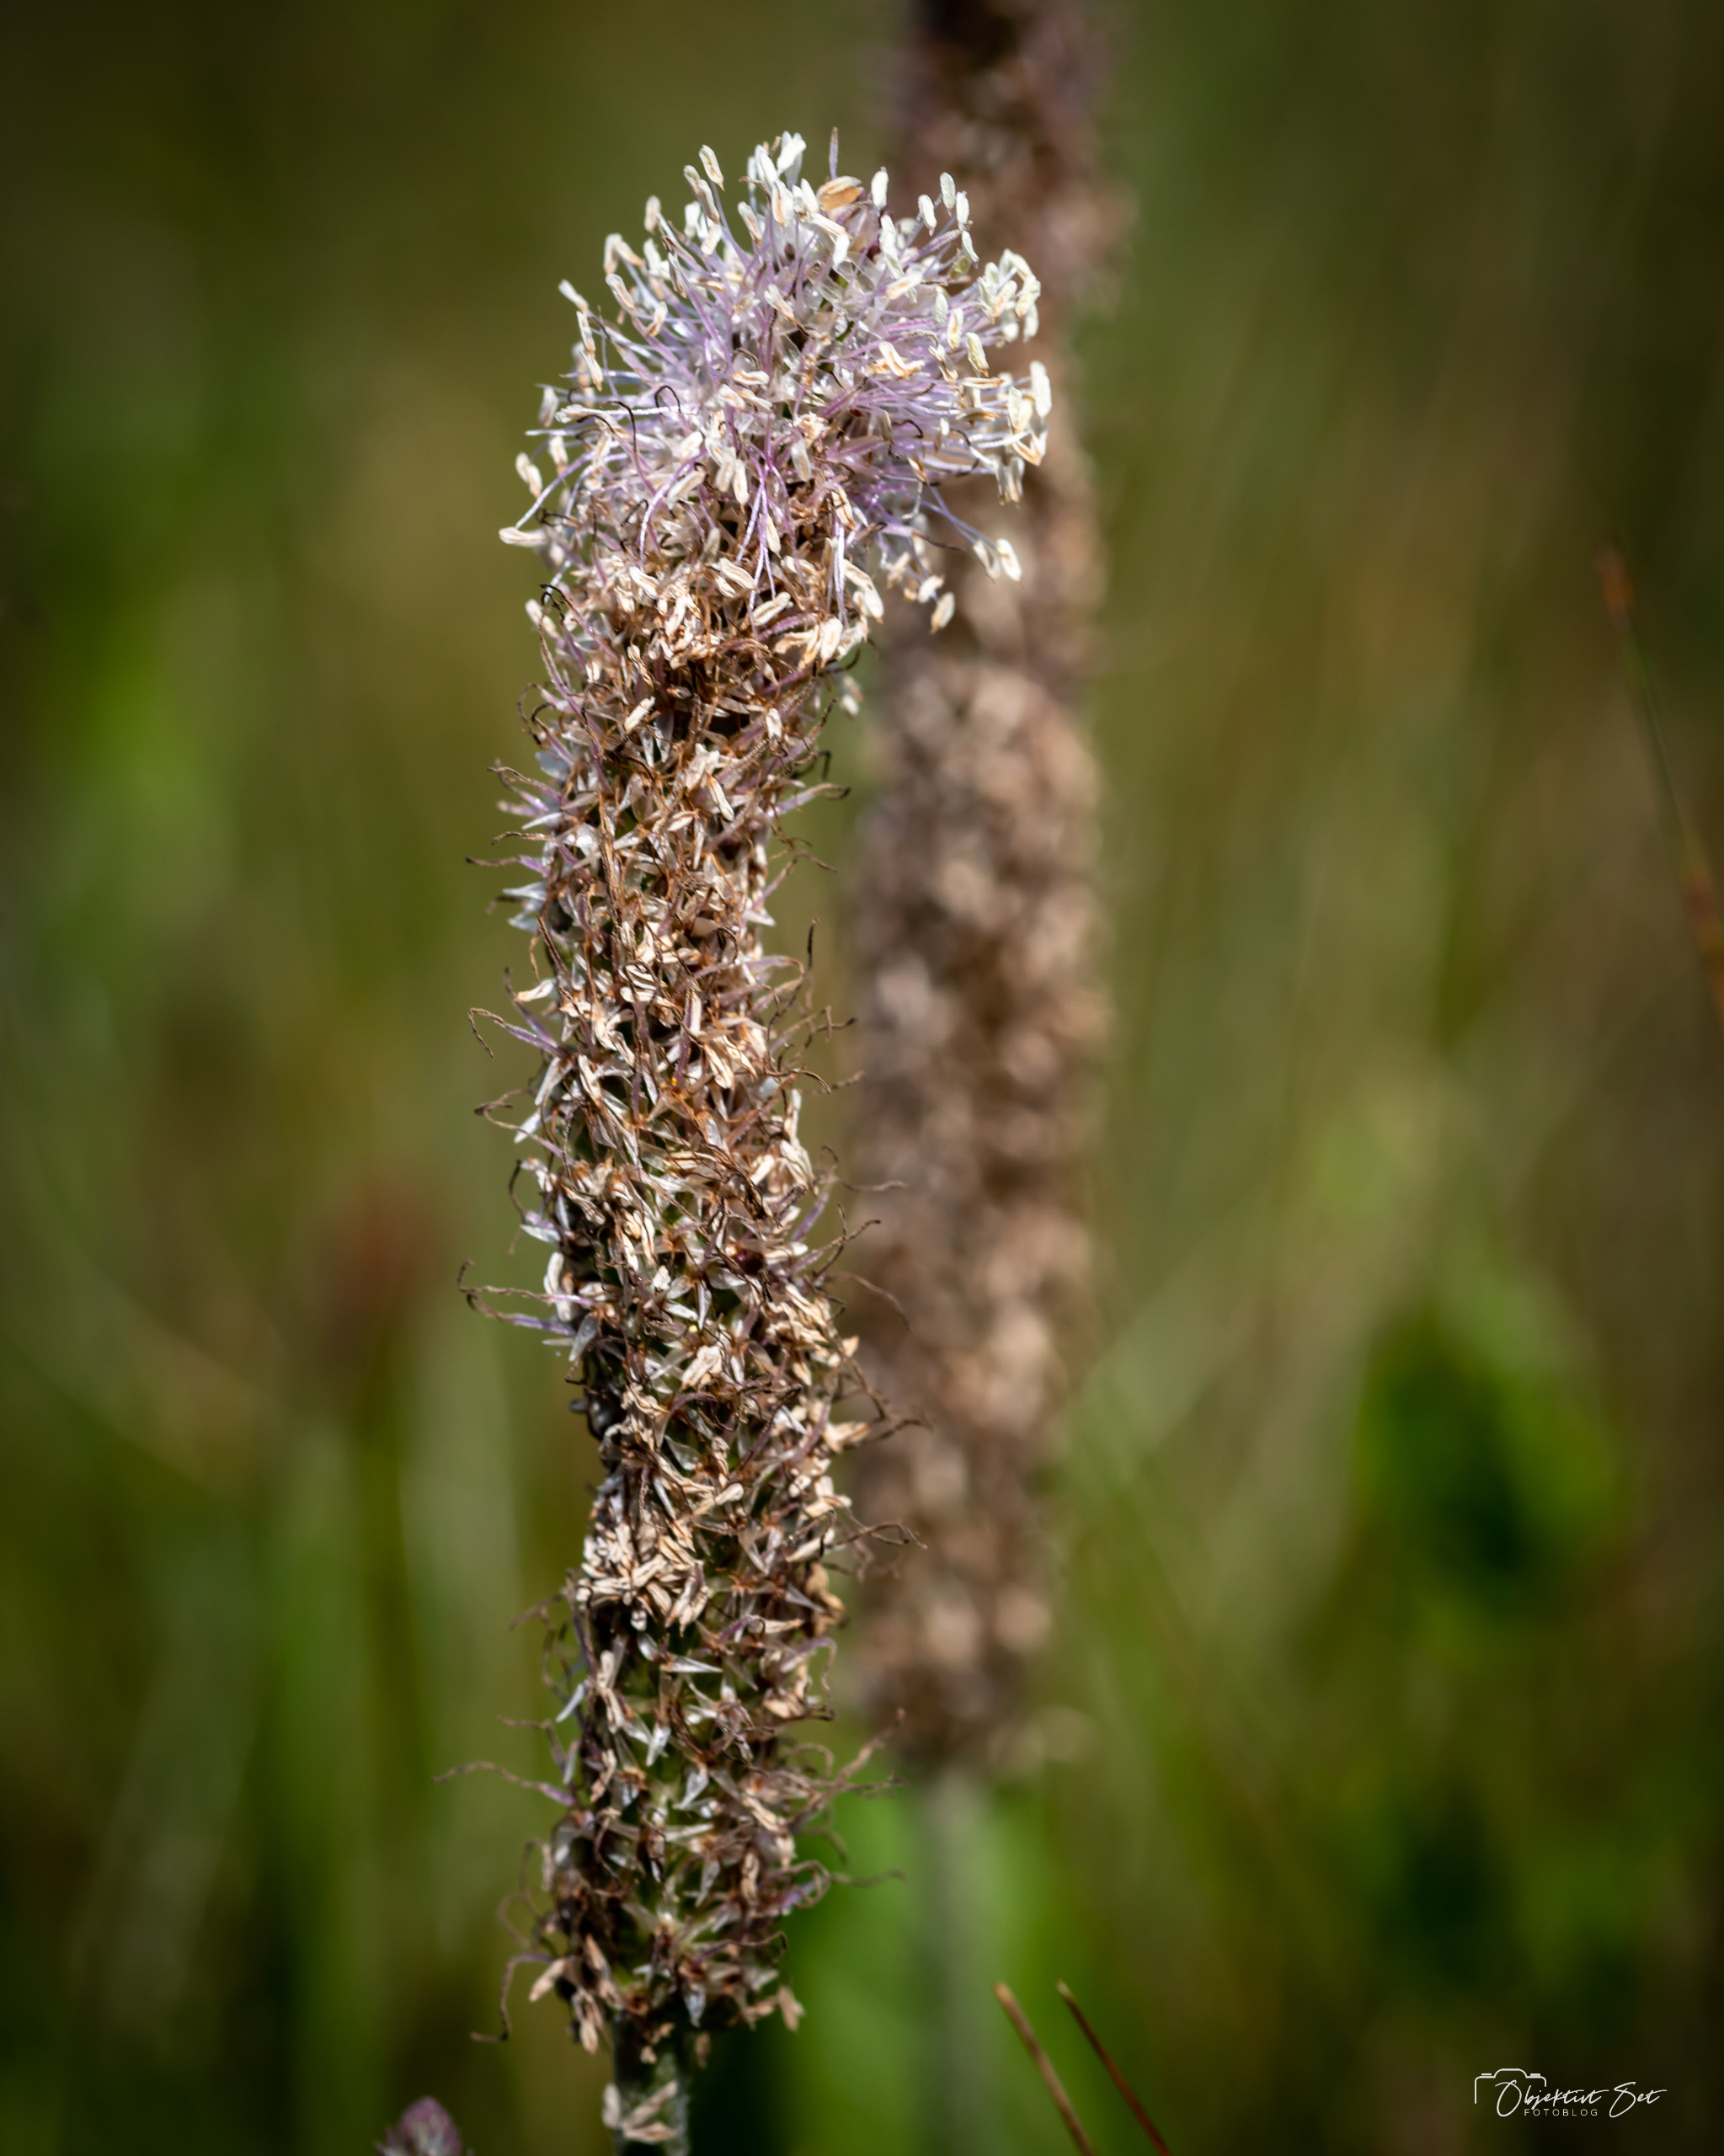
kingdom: Plantae
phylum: Tracheophyta
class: Magnoliopsida
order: Lamiales
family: Plantaginaceae
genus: Plantago
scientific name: Plantago media
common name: Dunet vejbred
